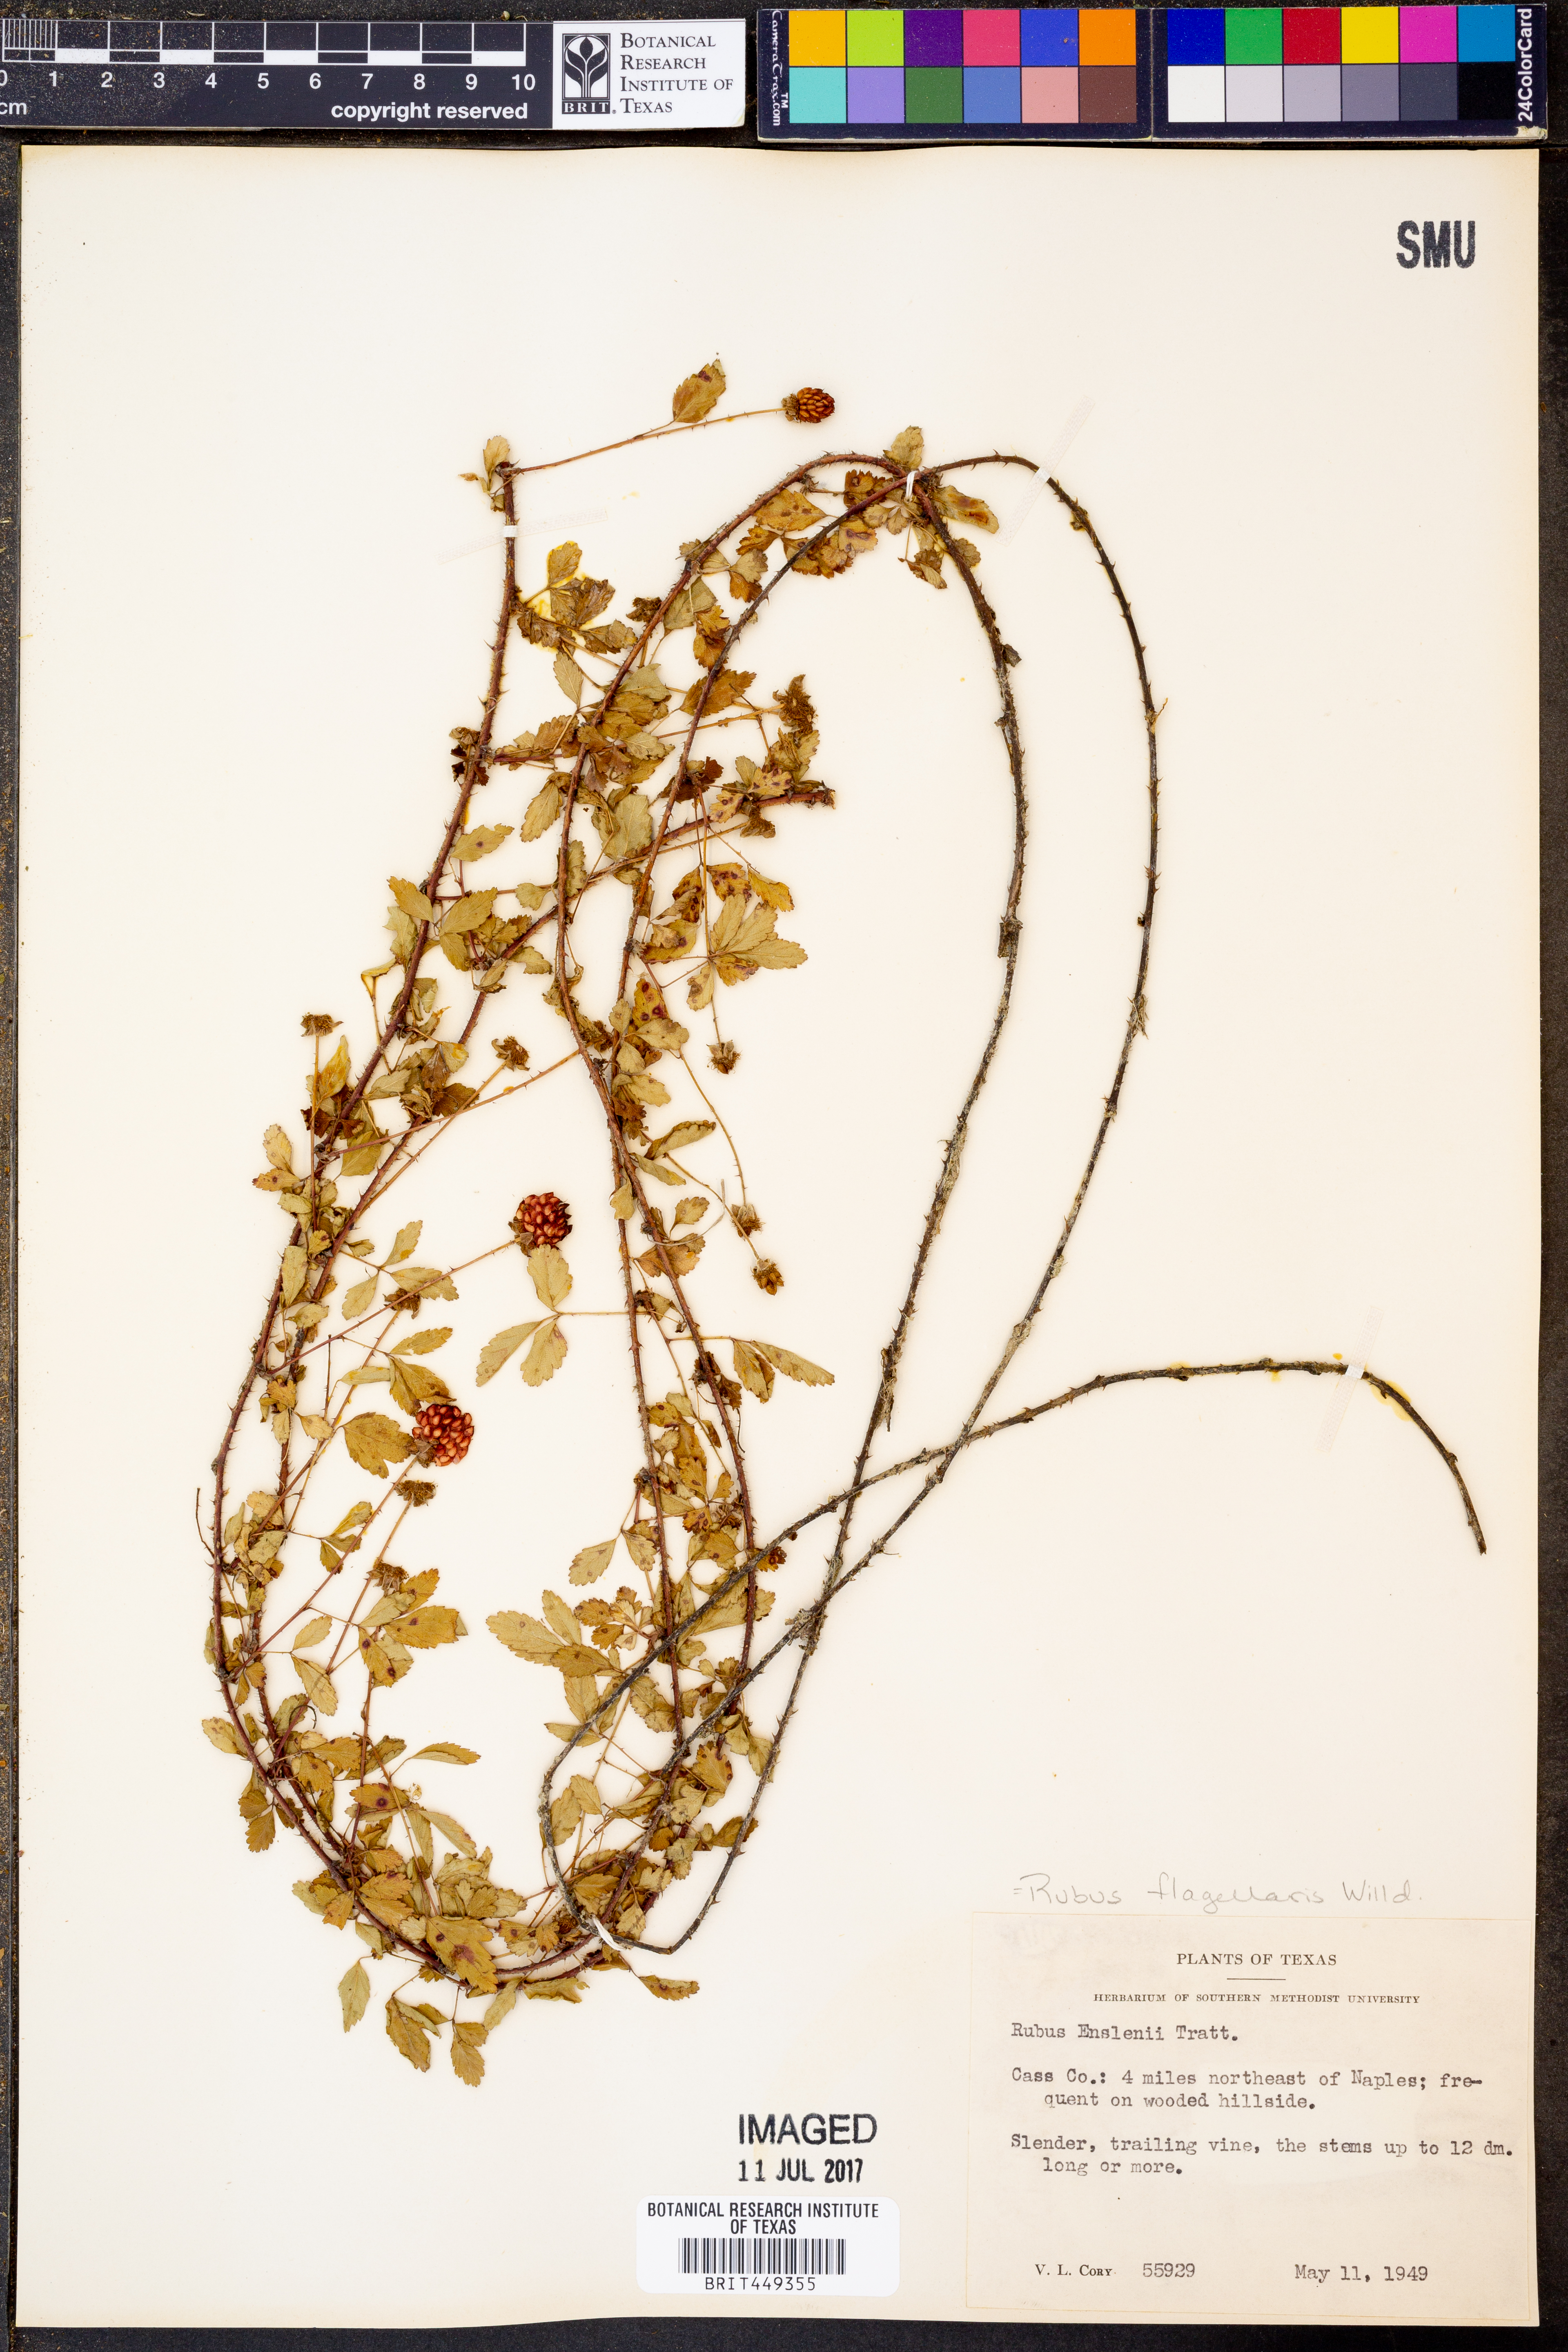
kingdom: Plantae
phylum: Tracheophyta
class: Magnoliopsida
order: Rosales
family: Rosaceae
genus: Rubus
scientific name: Rubus enslenii
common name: Southern dewberry
